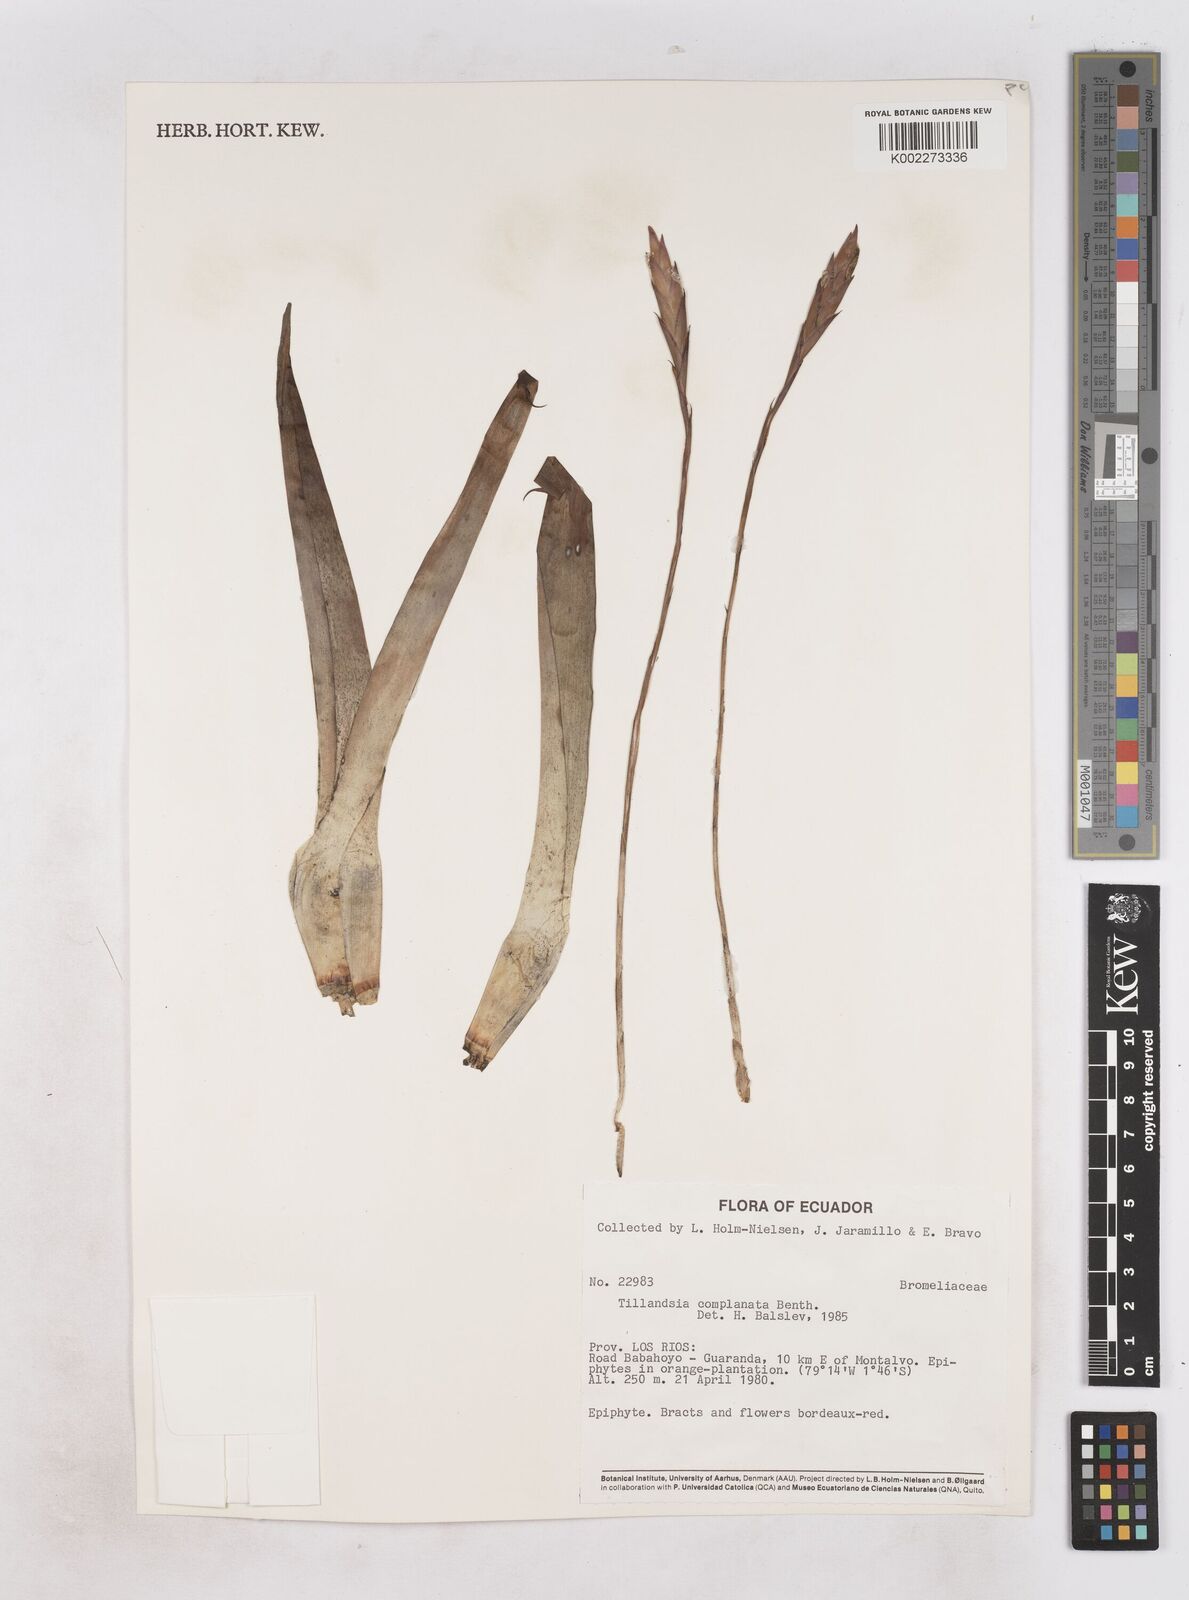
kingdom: Plantae
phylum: Tracheophyta
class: Liliopsida
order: Poales
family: Bromeliaceae
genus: Tillandsia
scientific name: Tillandsia complanata
